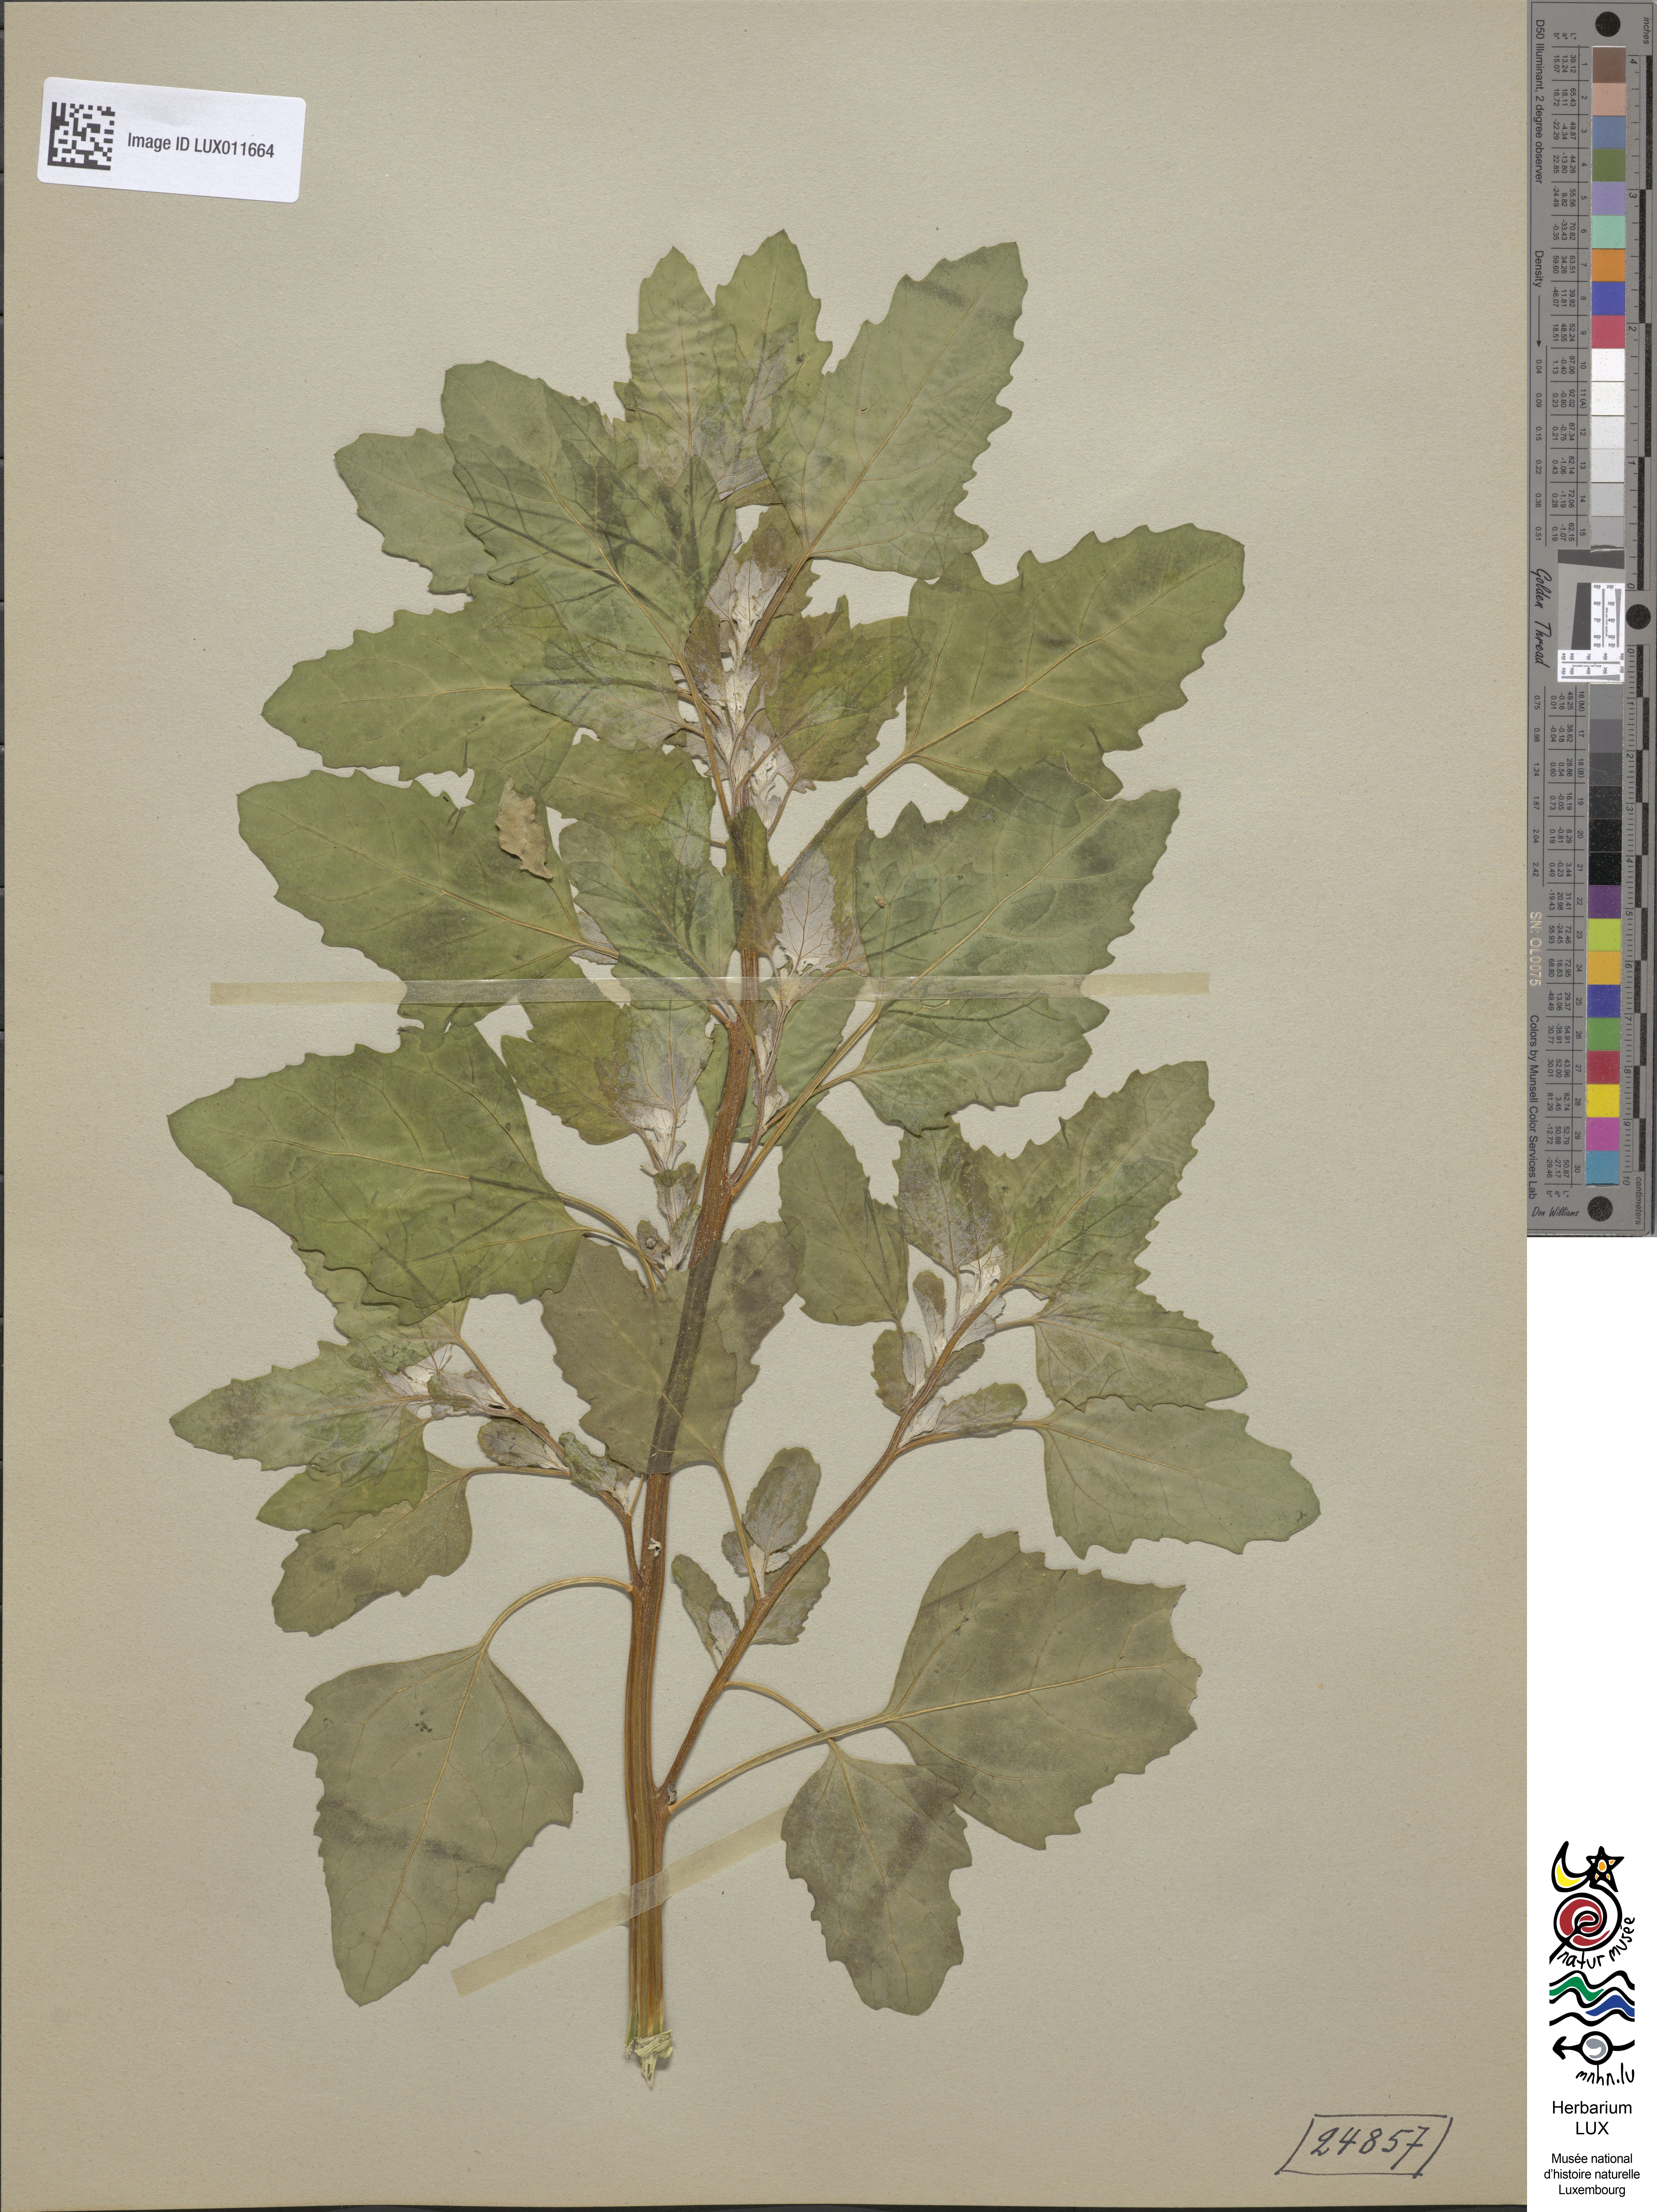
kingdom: Plantae
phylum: Tracheophyta
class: Magnoliopsida
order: Caryophyllales
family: Amaranthaceae
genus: Chenopodium
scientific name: Chenopodium probstii
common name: Probst's goosefoot
